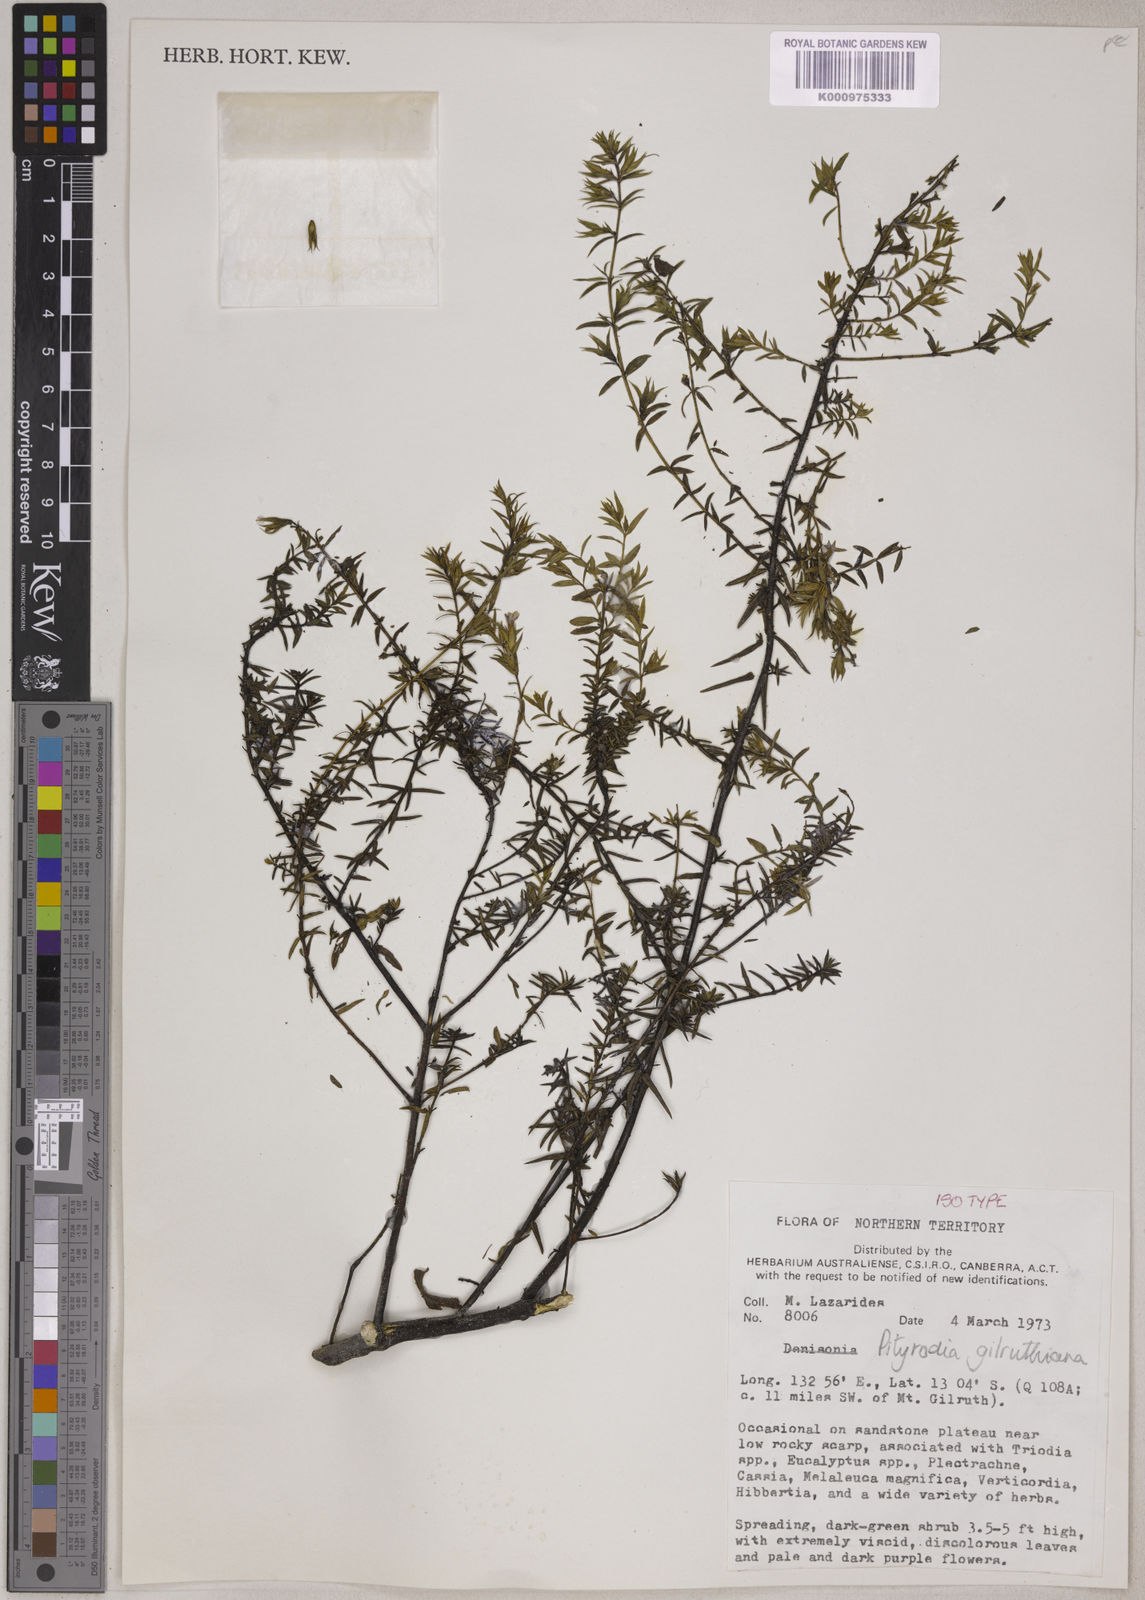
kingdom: Plantae
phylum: Tracheophyta
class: Magnoliopsida
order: Lamiales
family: Lamiaceae
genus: Pityrodia
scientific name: Pityrodia
